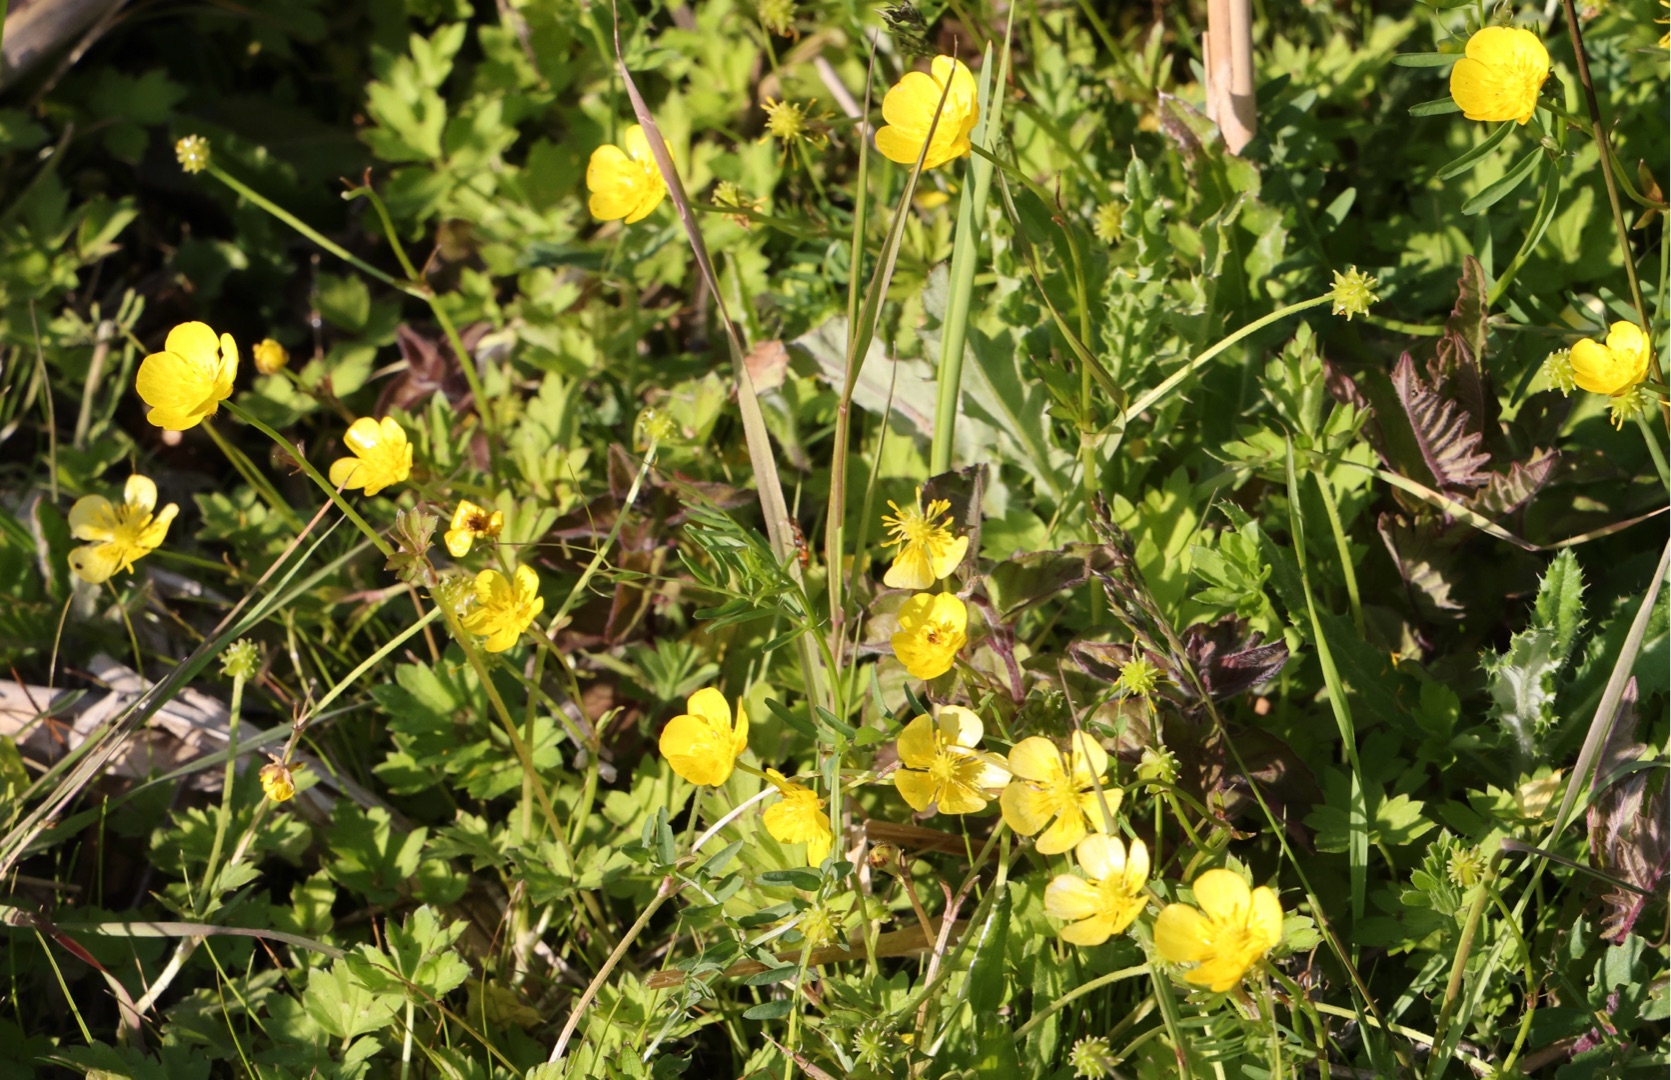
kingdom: Plantae
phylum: Tracheophyta
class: Magnoliopsida
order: Ranunculales
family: Ranunculaceae
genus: Ranunculus
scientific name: Ranunculus repens
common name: Lav ranunkel
